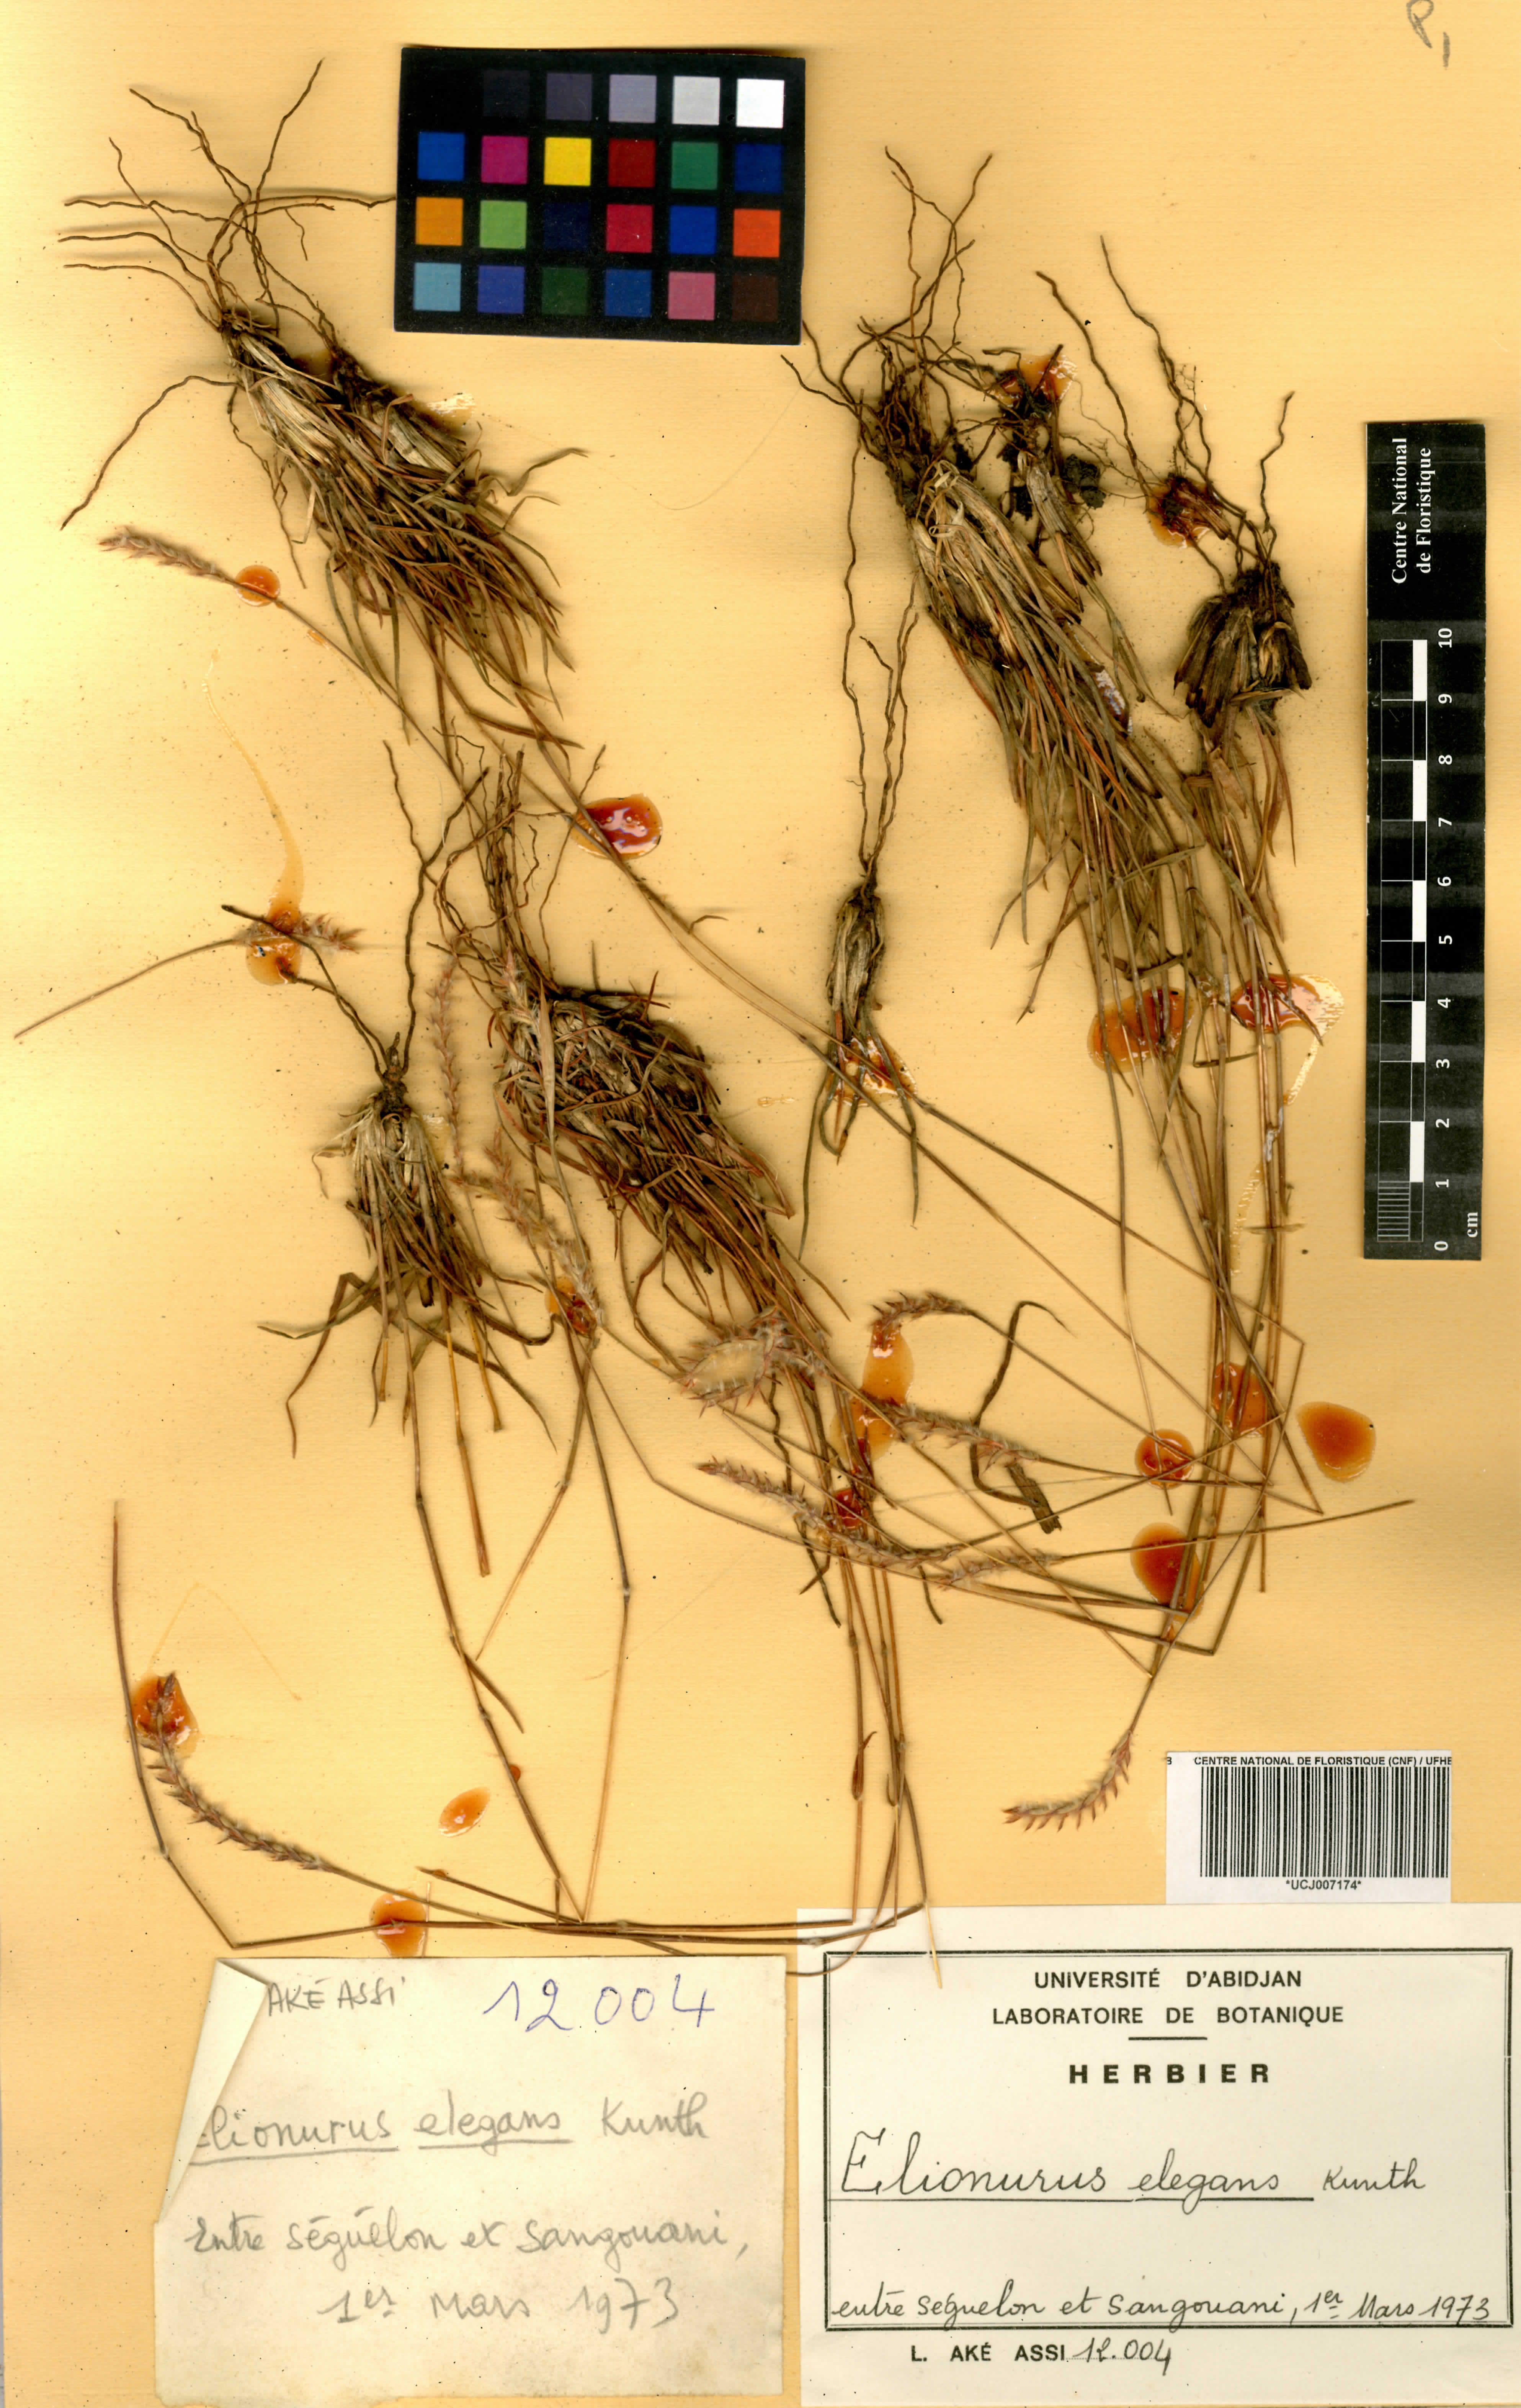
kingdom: Plantae
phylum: Tracheophyta
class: Liliopsida
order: Poales
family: Poaceae
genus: Elionurus
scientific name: Elionurus elegans
